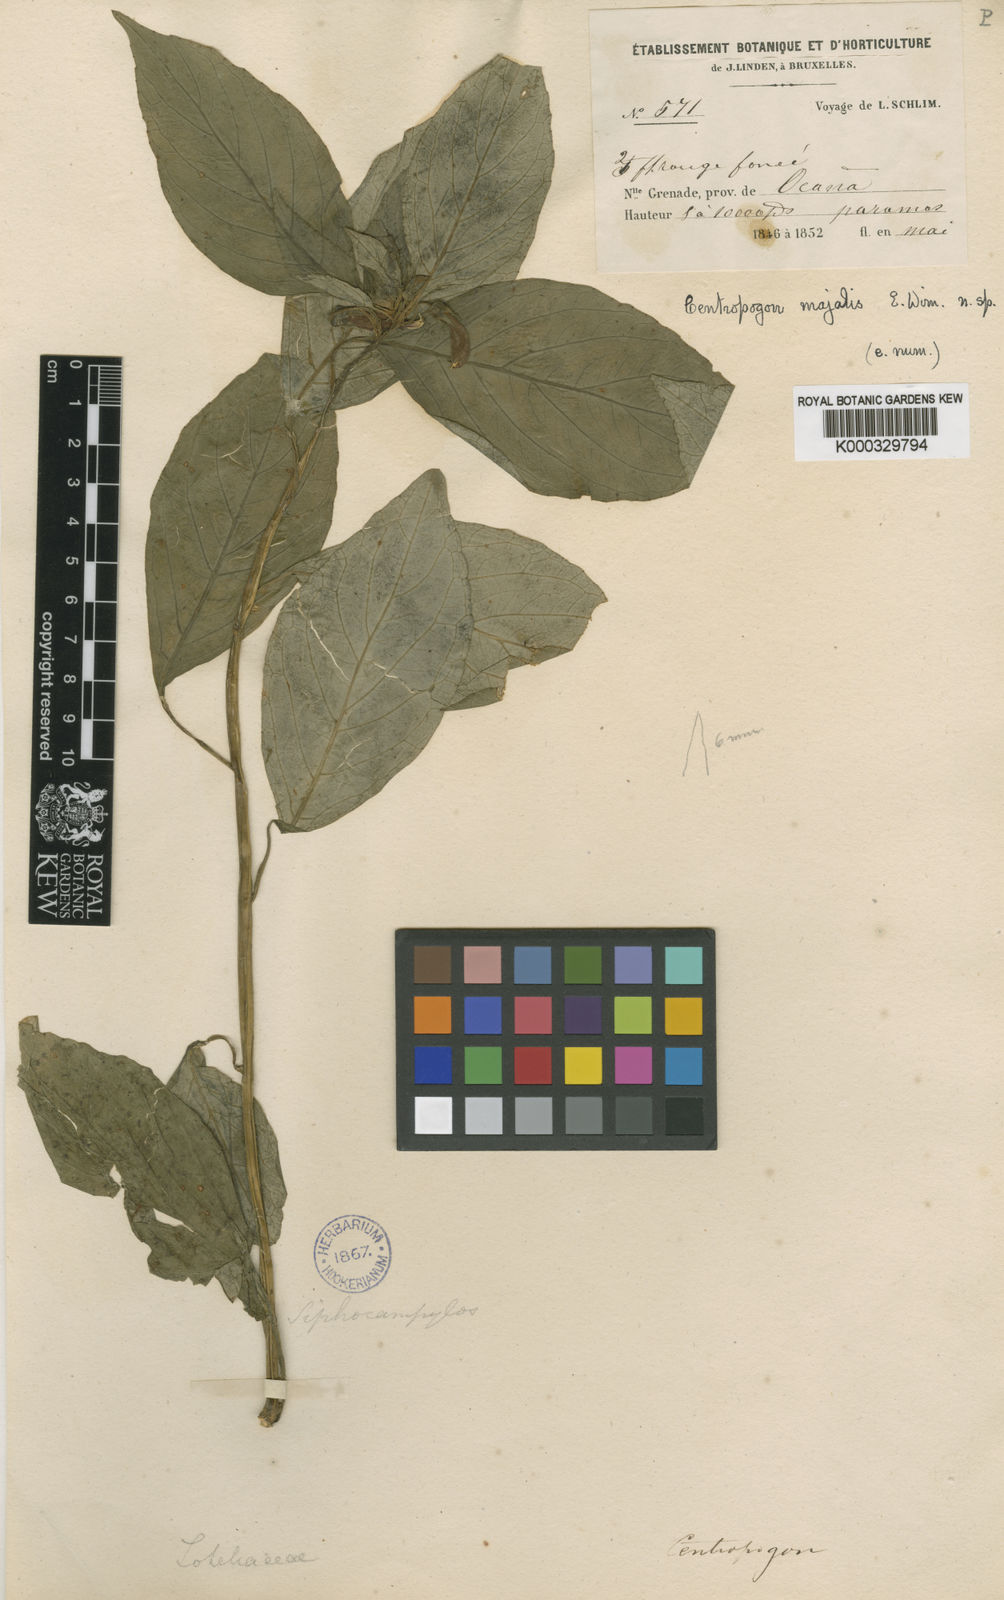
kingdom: Plantae
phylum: Tracheophyta
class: Magnoliopsida
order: Asterales
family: Campanulaceae
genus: Centropogon
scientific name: Centropogon pamplonensis
